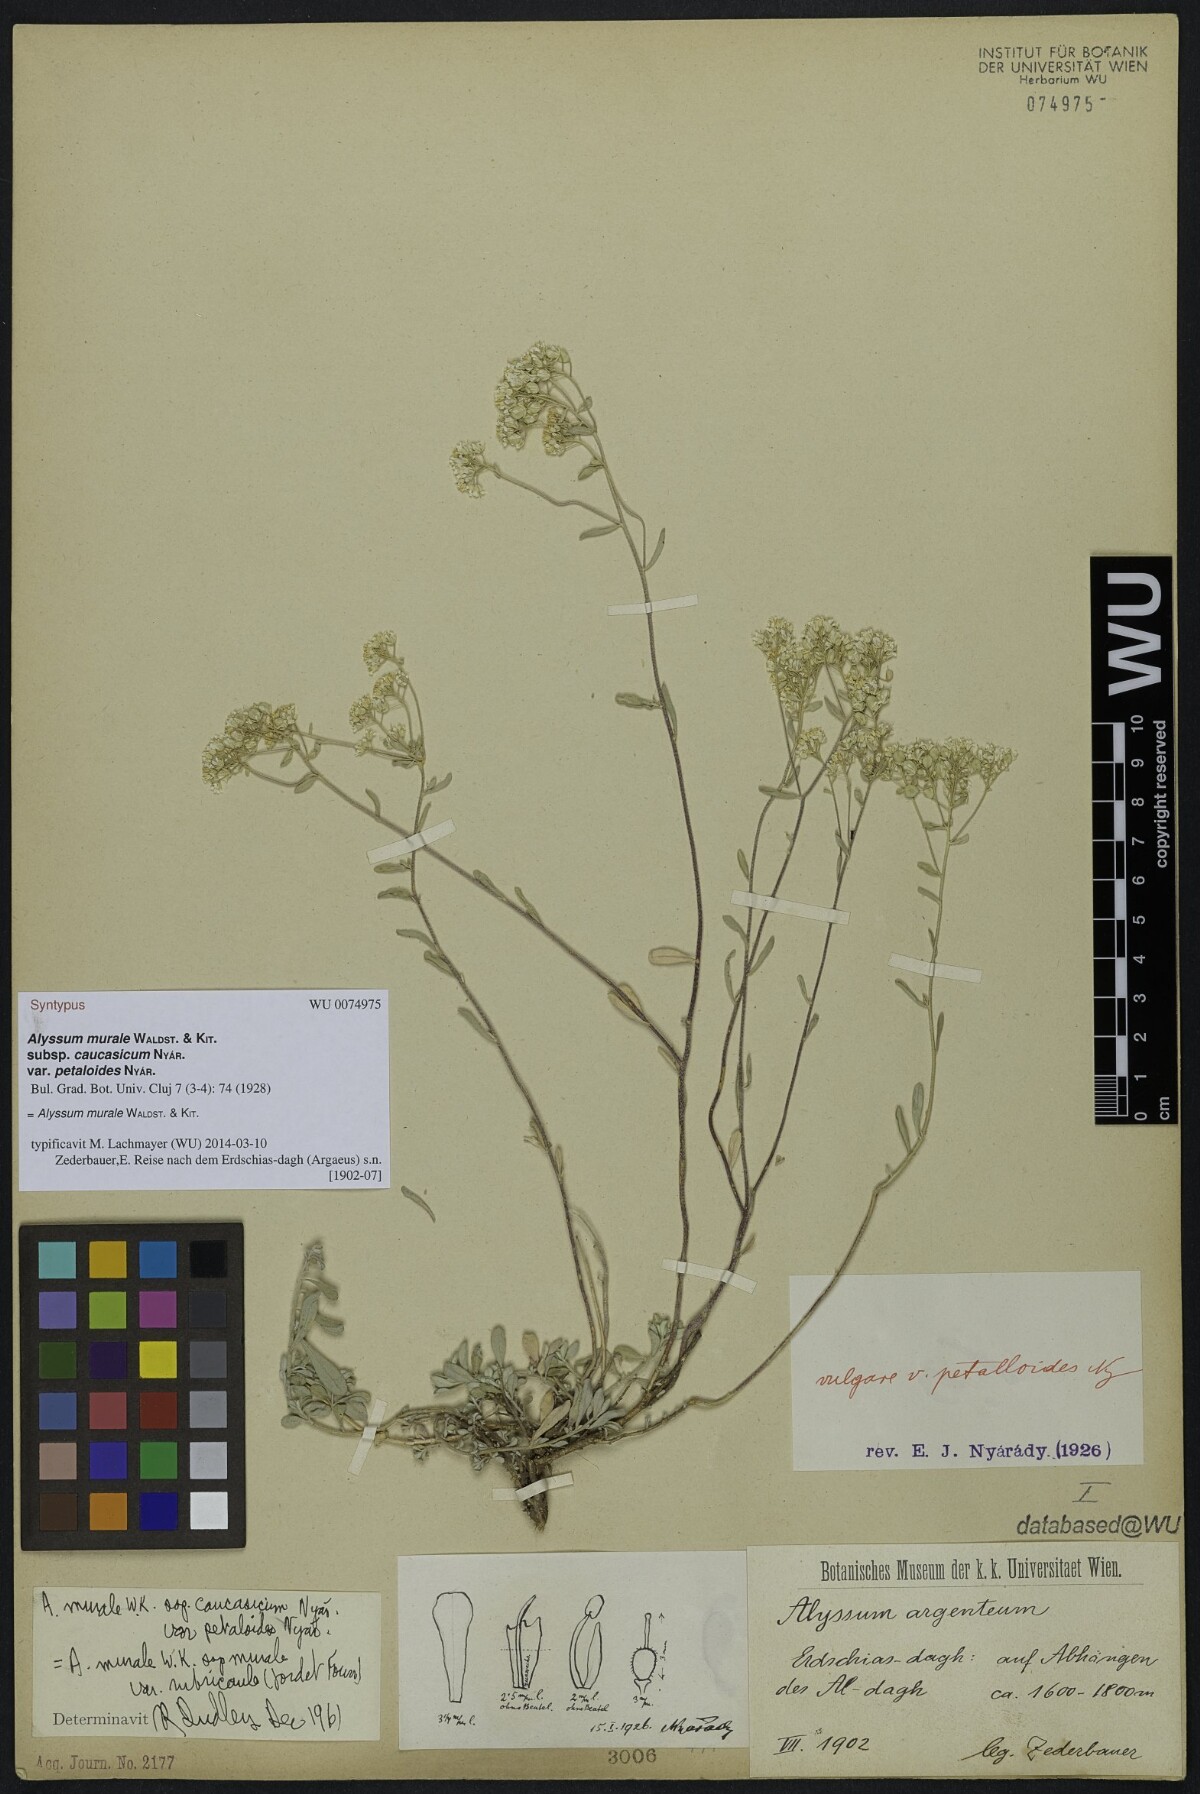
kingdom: Plantae
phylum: Tracheophyta
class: Magnoliopsida
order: Brassicales
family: Brassicaceae
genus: Odontarrhena
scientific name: Odontarrhena muralis
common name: Rock alyssum
